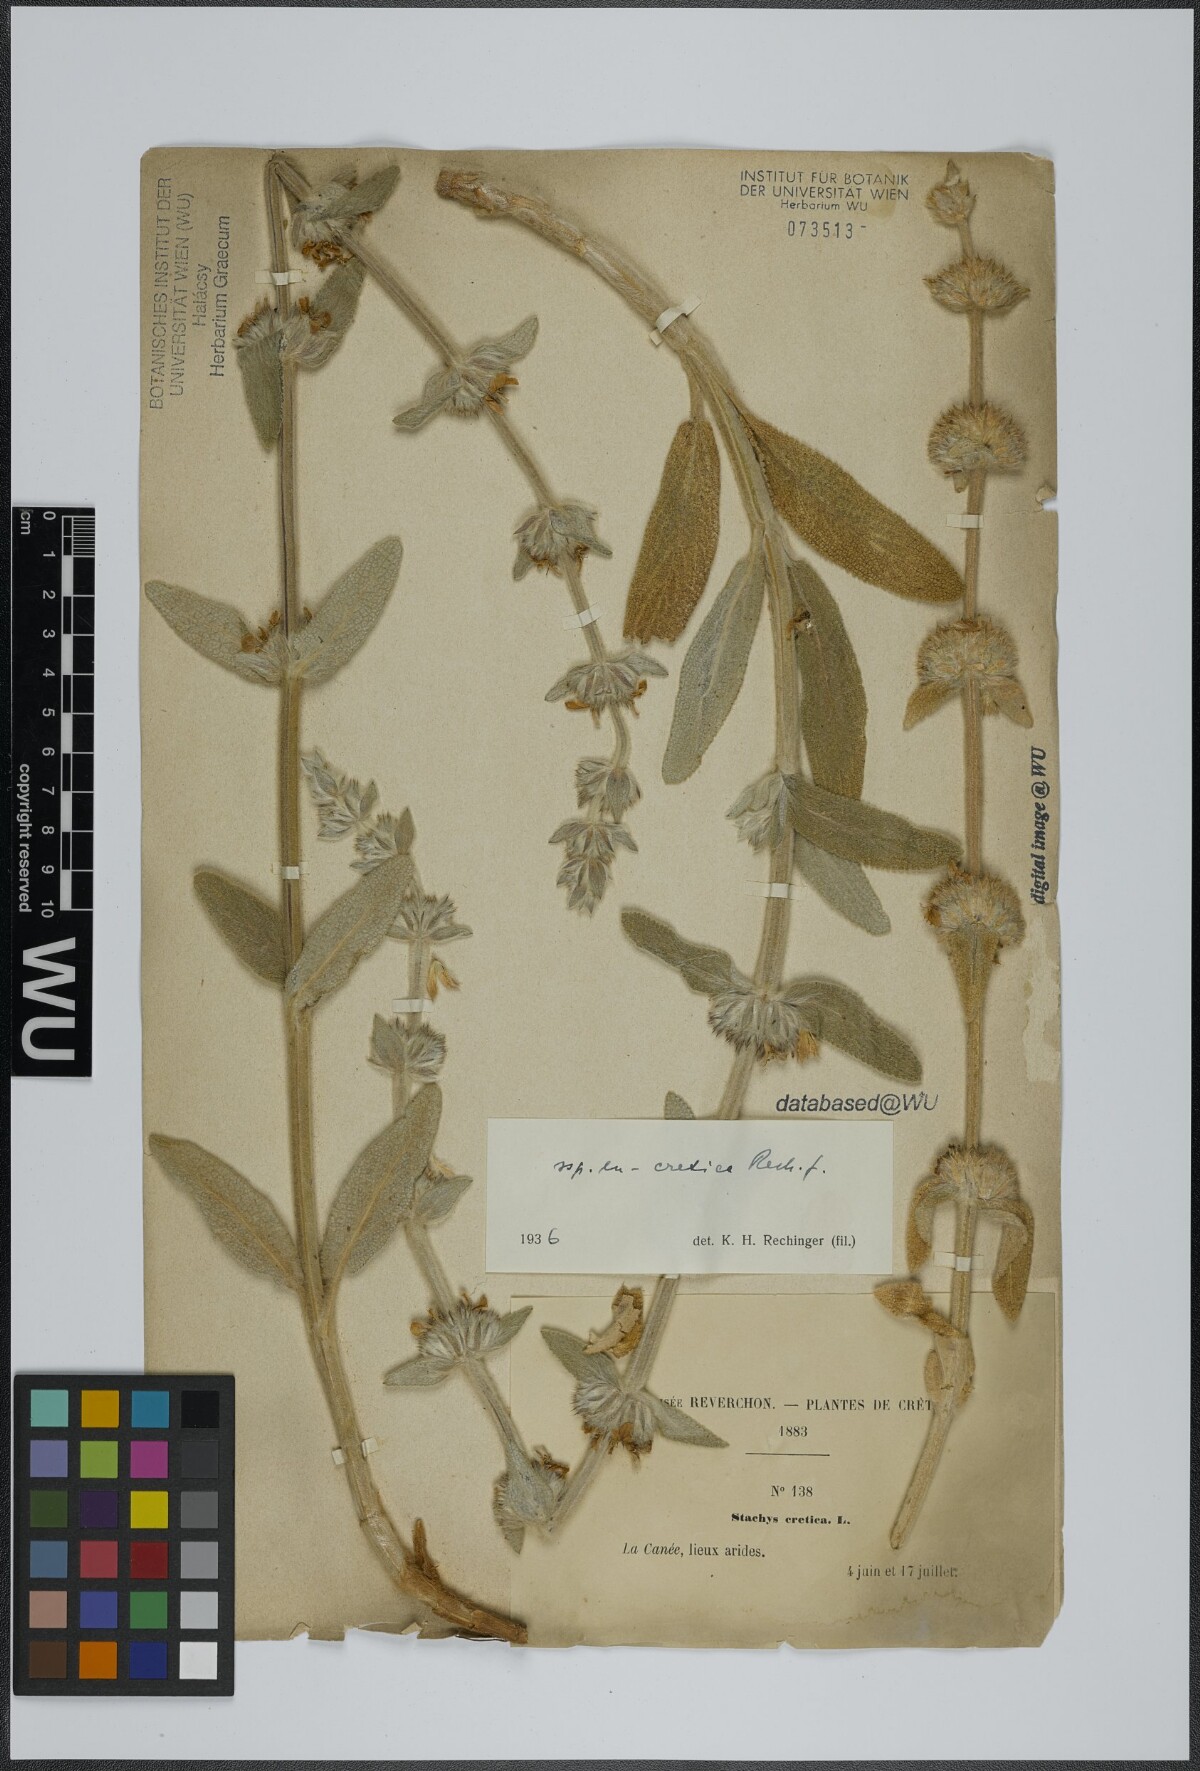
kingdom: Plantae
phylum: Tracheophyta
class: Magnoliopsida
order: Lamiales
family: Lamiaceae
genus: Stachys
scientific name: Stachys cretica
